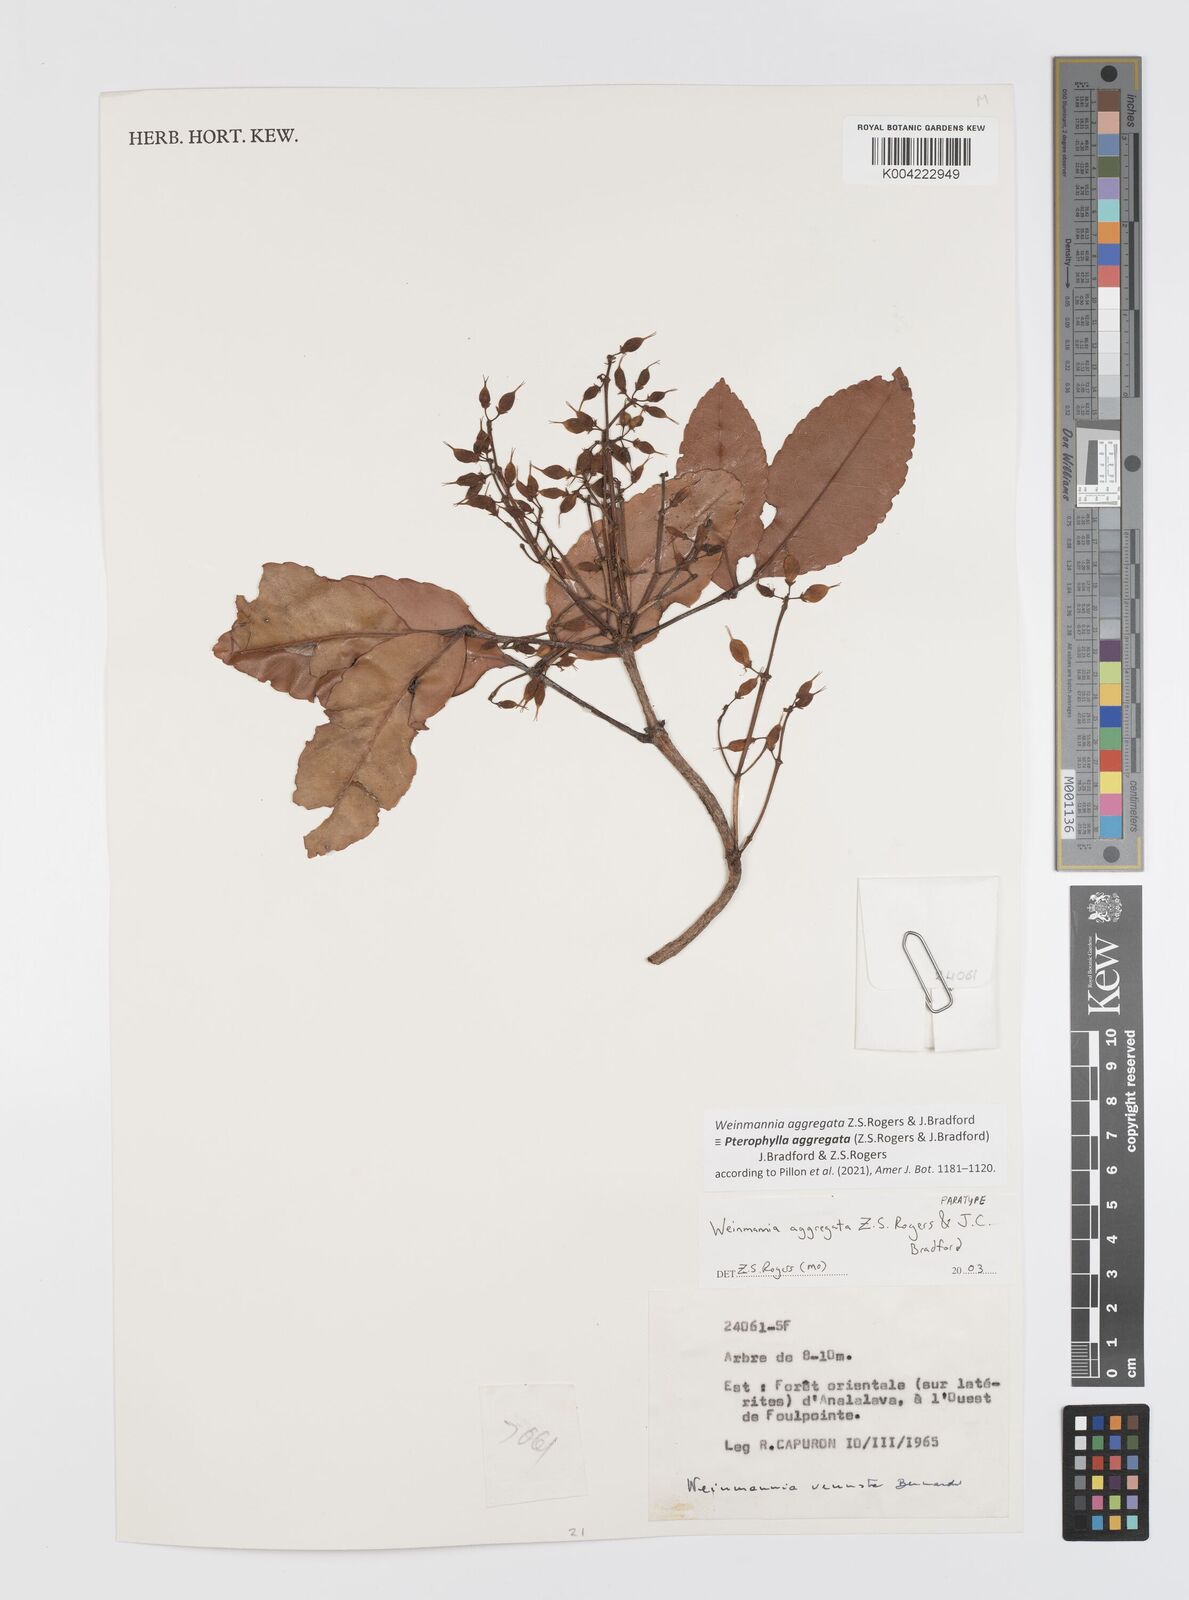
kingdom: Plantae
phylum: Tracheophyta
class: Magnoliopsida
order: Oxalidales
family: Cunoniaceae
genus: Pterophylla
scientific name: Pterophylla aggregata
